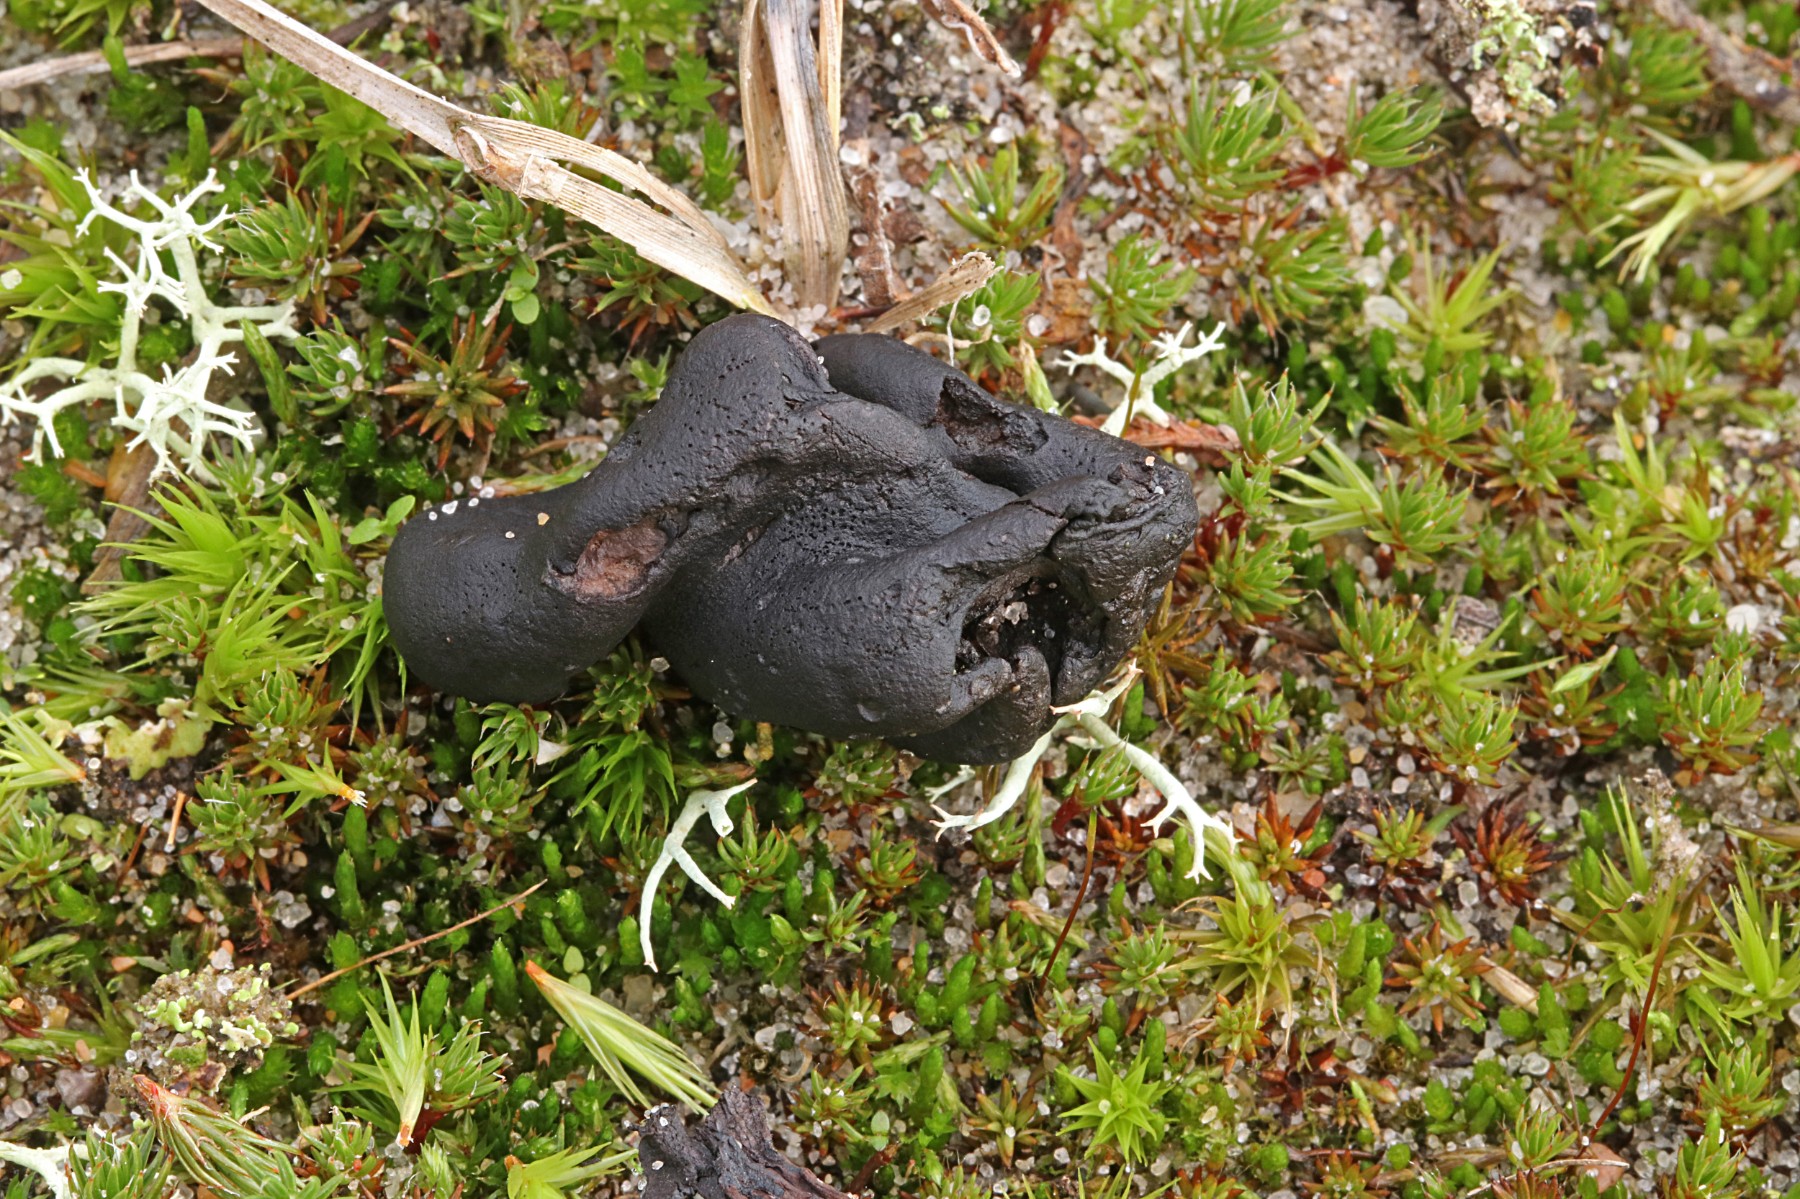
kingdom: Fungi
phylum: Ascomycota
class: Geoglossomycetes
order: Geoglossales
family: Geoglossaceae
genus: Sabuloglossum
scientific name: Sabuloglossum arenarium
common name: klit-jordtunge
